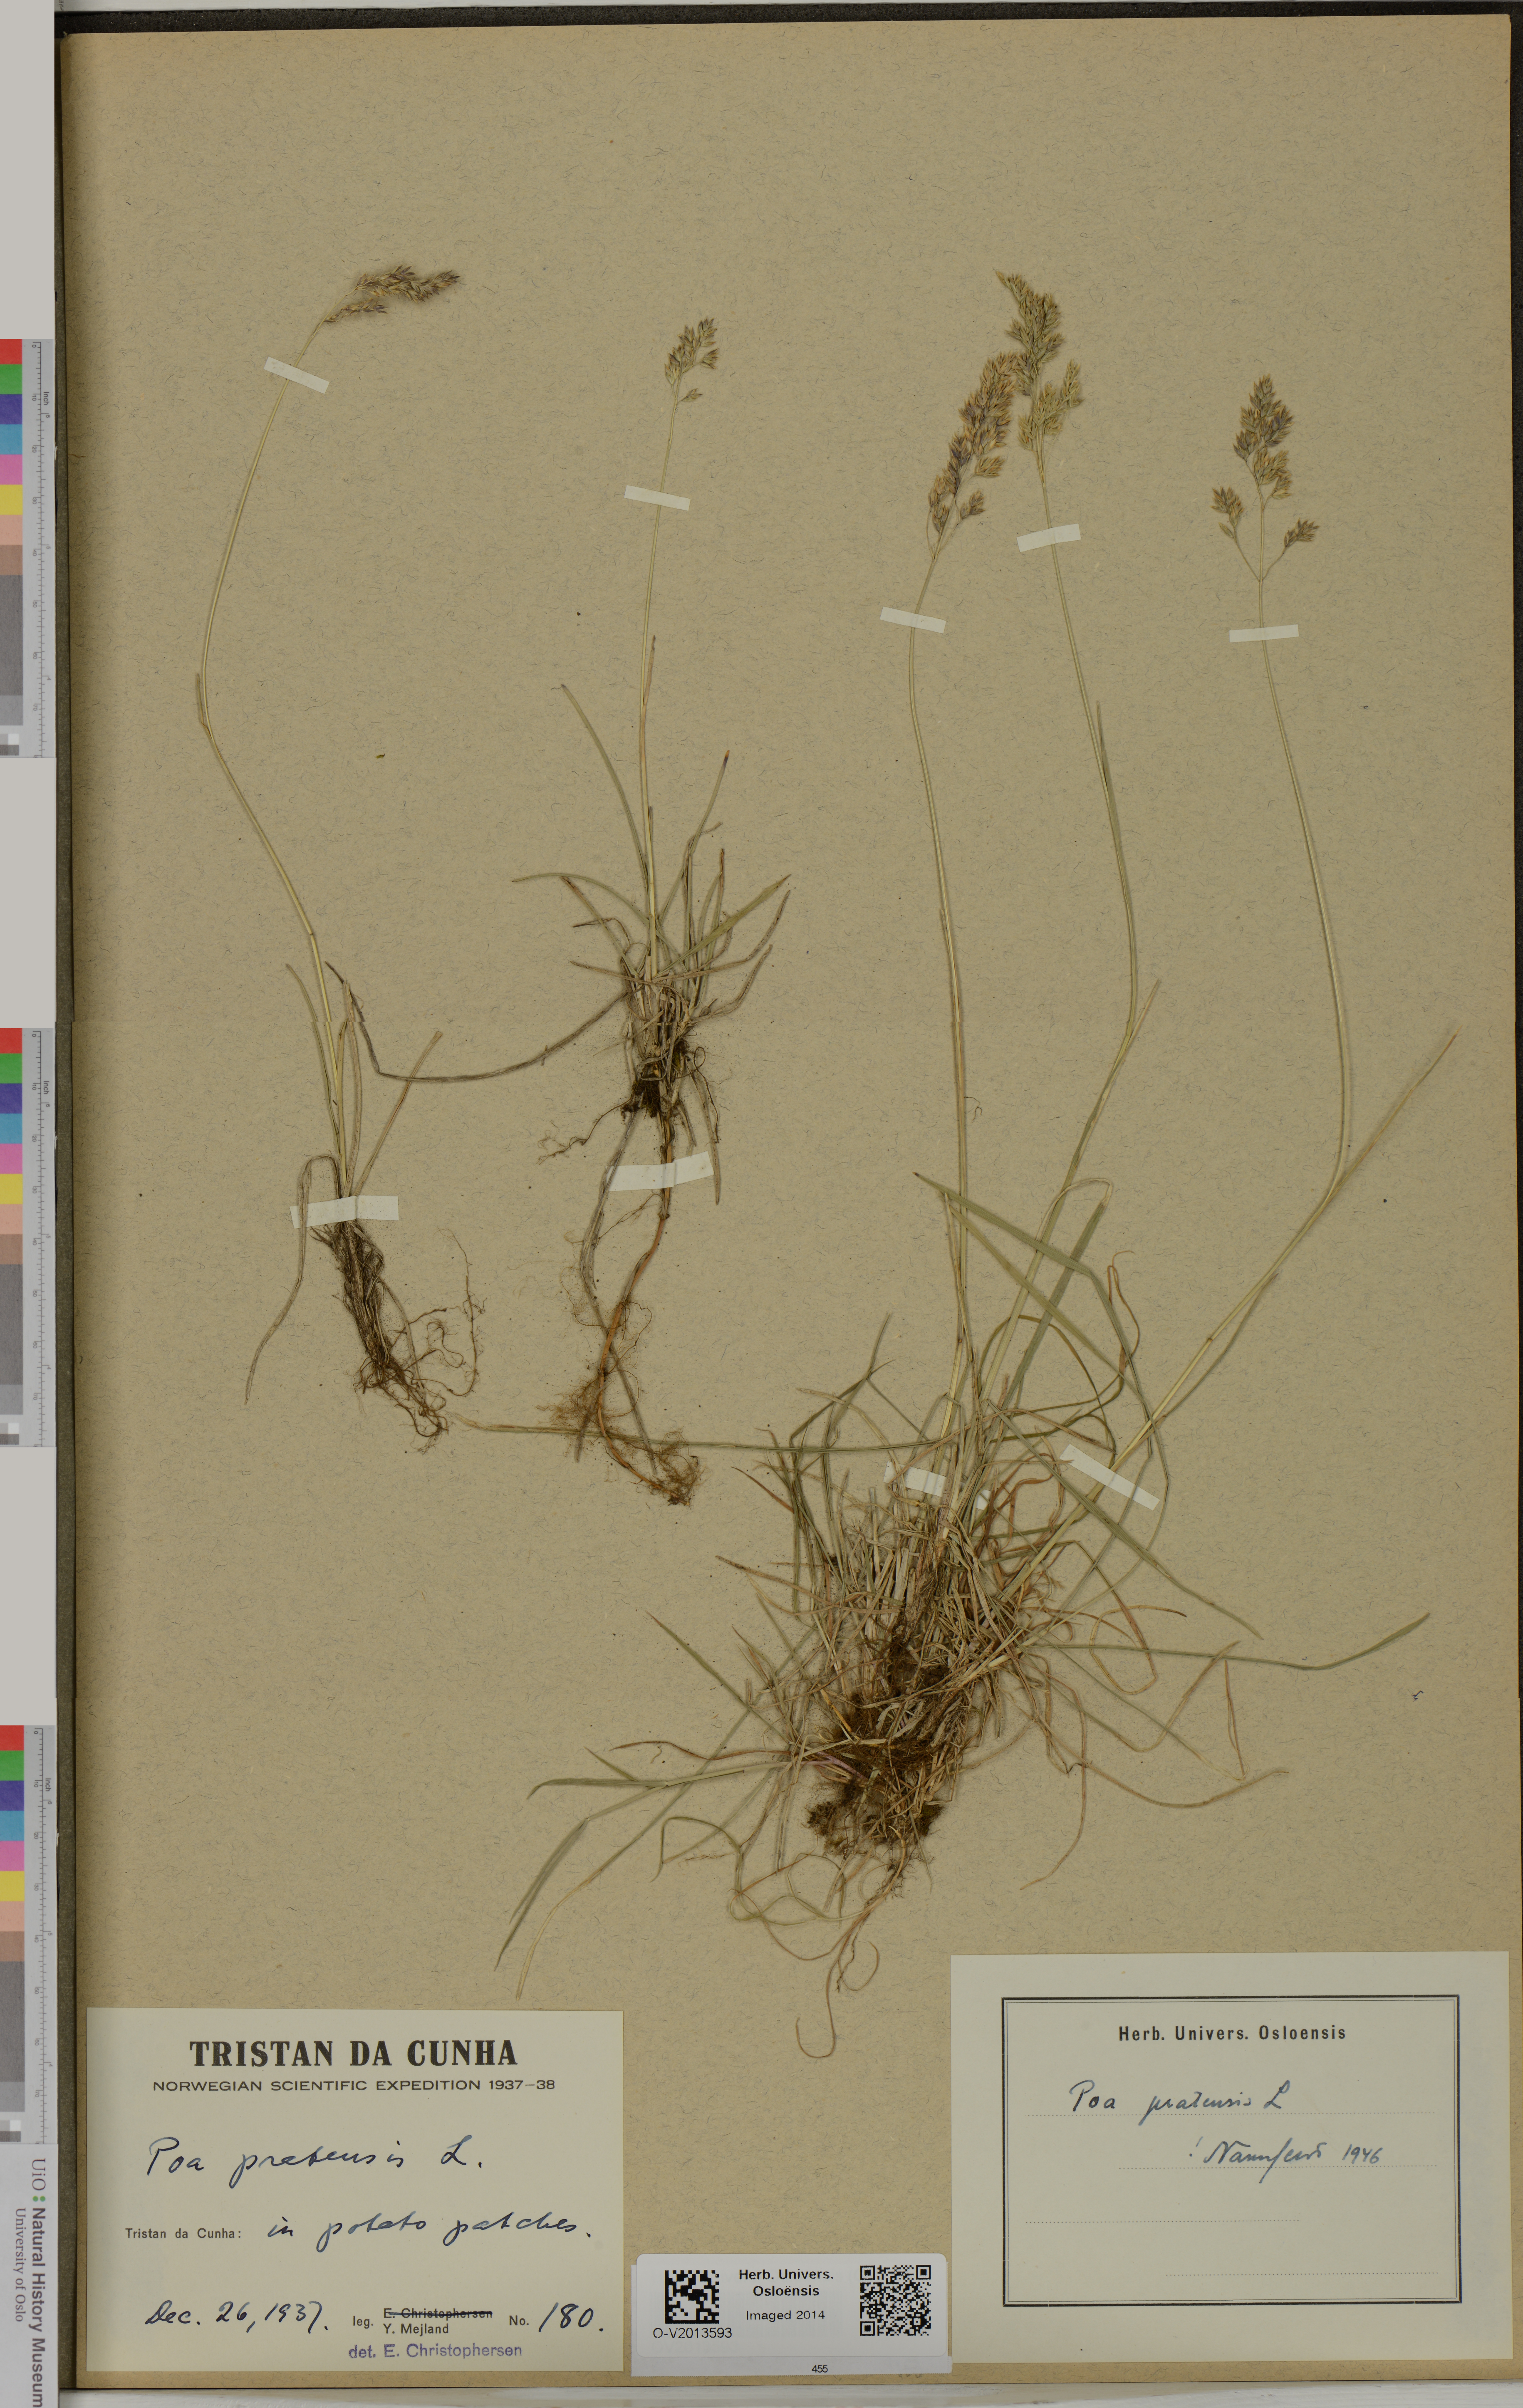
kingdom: Plantae
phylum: Tracheophyta
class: Liliopsida
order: Poales
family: Poaceae
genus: Poa
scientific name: Poa pratensis
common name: Kentucky bluegrass
